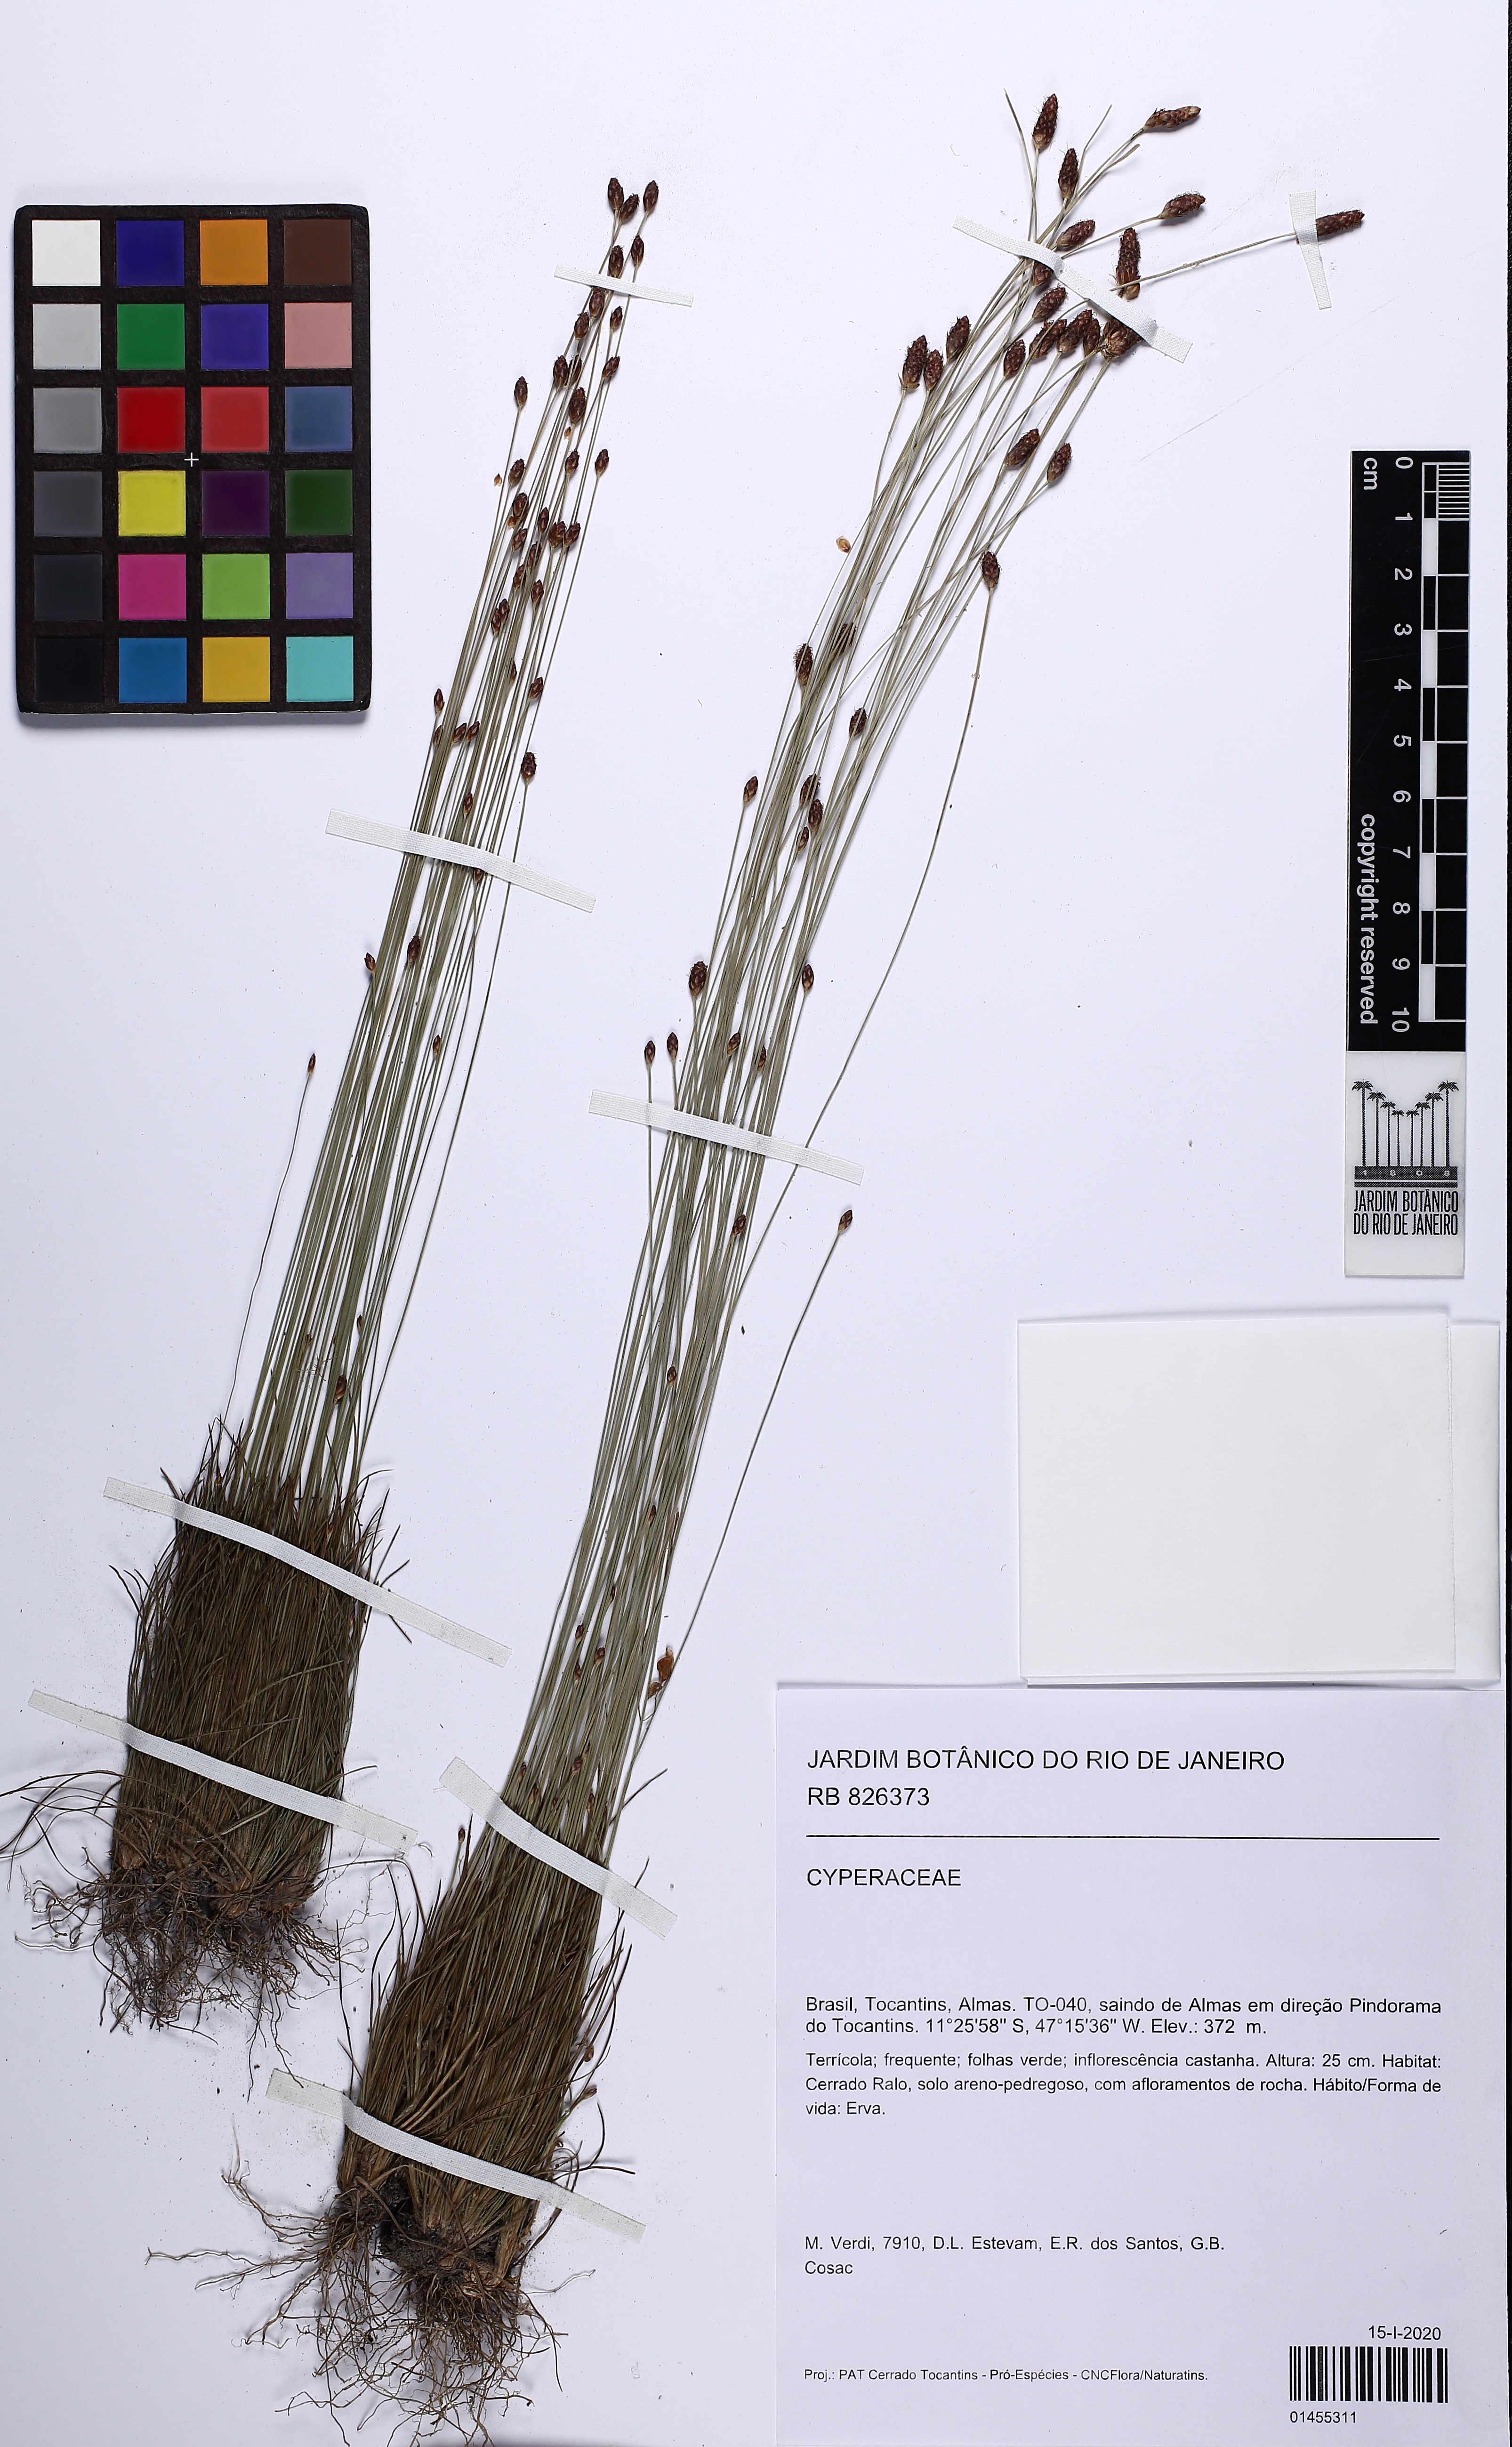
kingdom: Plantae
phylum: Tracheophyta
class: Liliopsida
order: Poales
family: Cyperaceae
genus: Bulbostylis
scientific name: Bulbostylis conifera
